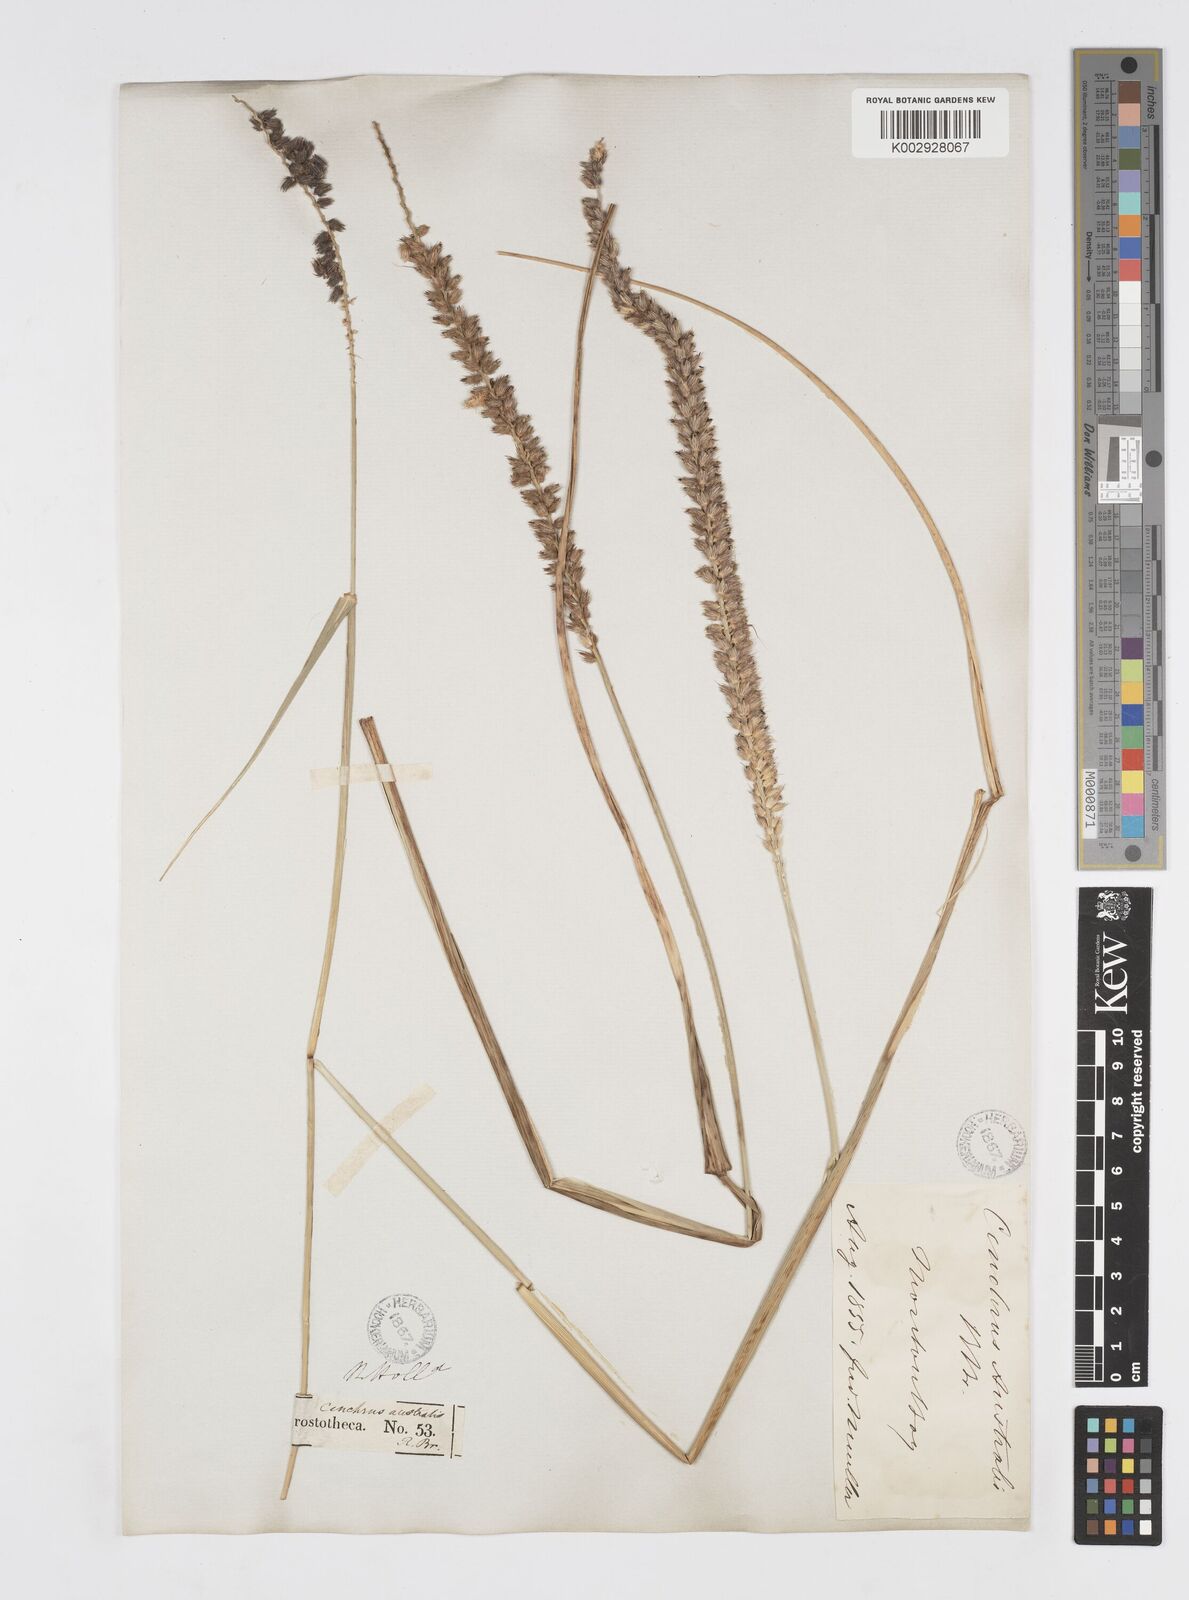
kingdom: Plantae
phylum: Tracheophyta
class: Liliopsida
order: Poales
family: Poaceae
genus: Cenchrus
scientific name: Cenchrus caliculatus
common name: Large bur grass
